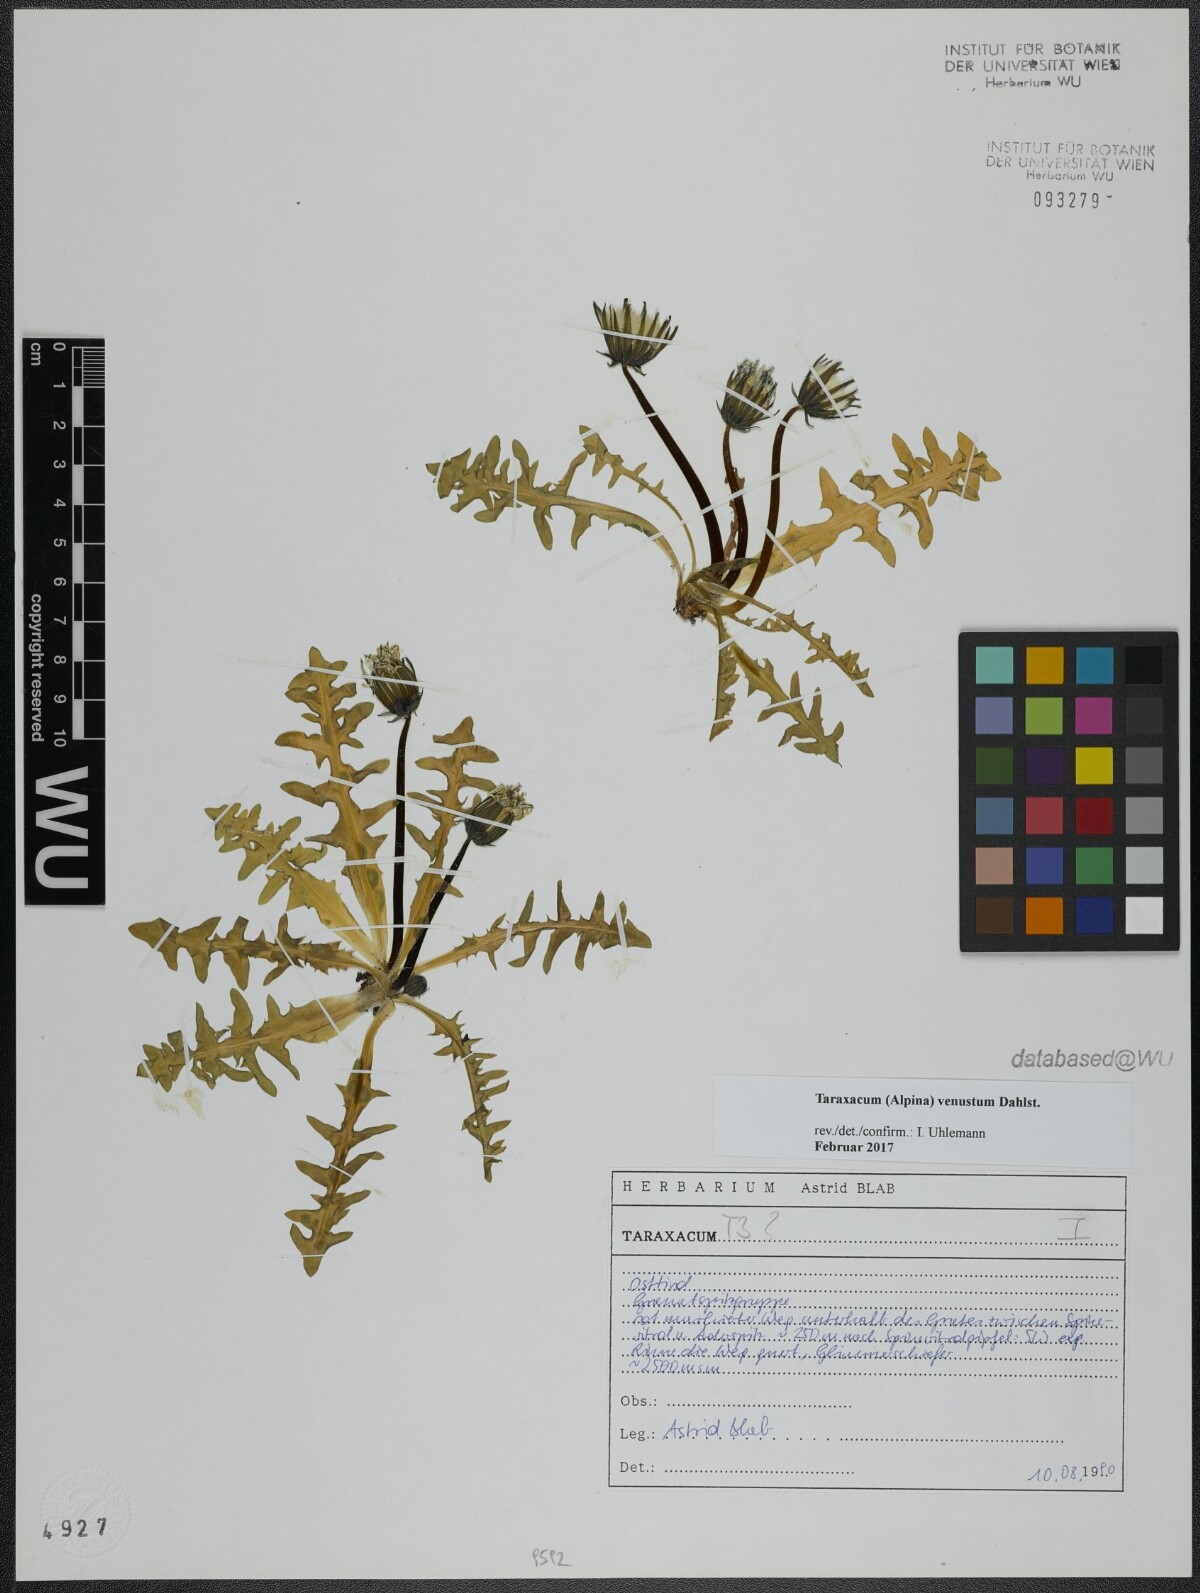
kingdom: Plantae
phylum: Tracheophyta
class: Magnoliopsida
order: Asterales
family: Asteraceae
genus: Taraxacum
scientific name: Taraxacum venustum
